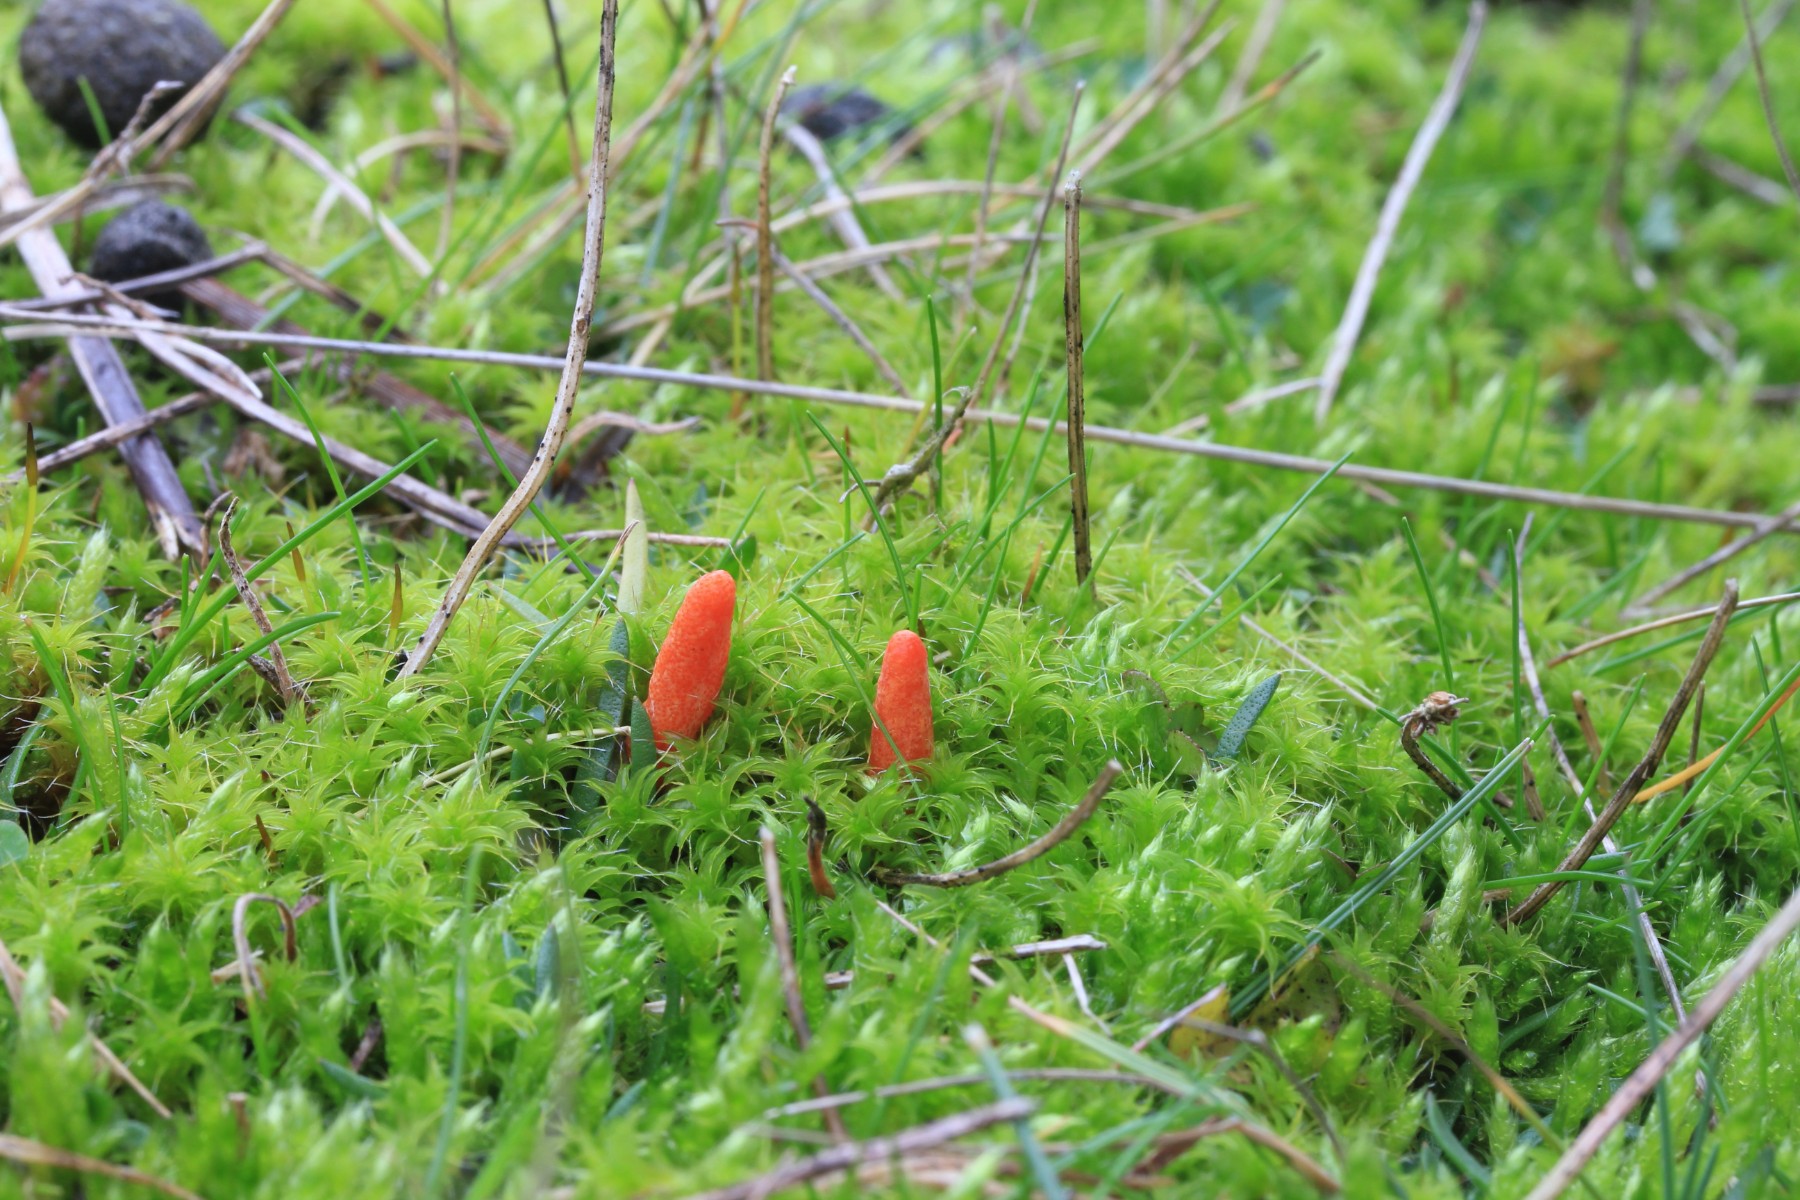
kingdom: Fungi
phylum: Ascomycota
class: Sordariomycetes
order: Hypocreales
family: Cordycipitaceae
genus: Cordyceps
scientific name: Cordyceps militaris
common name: puppe-snyltekølle
